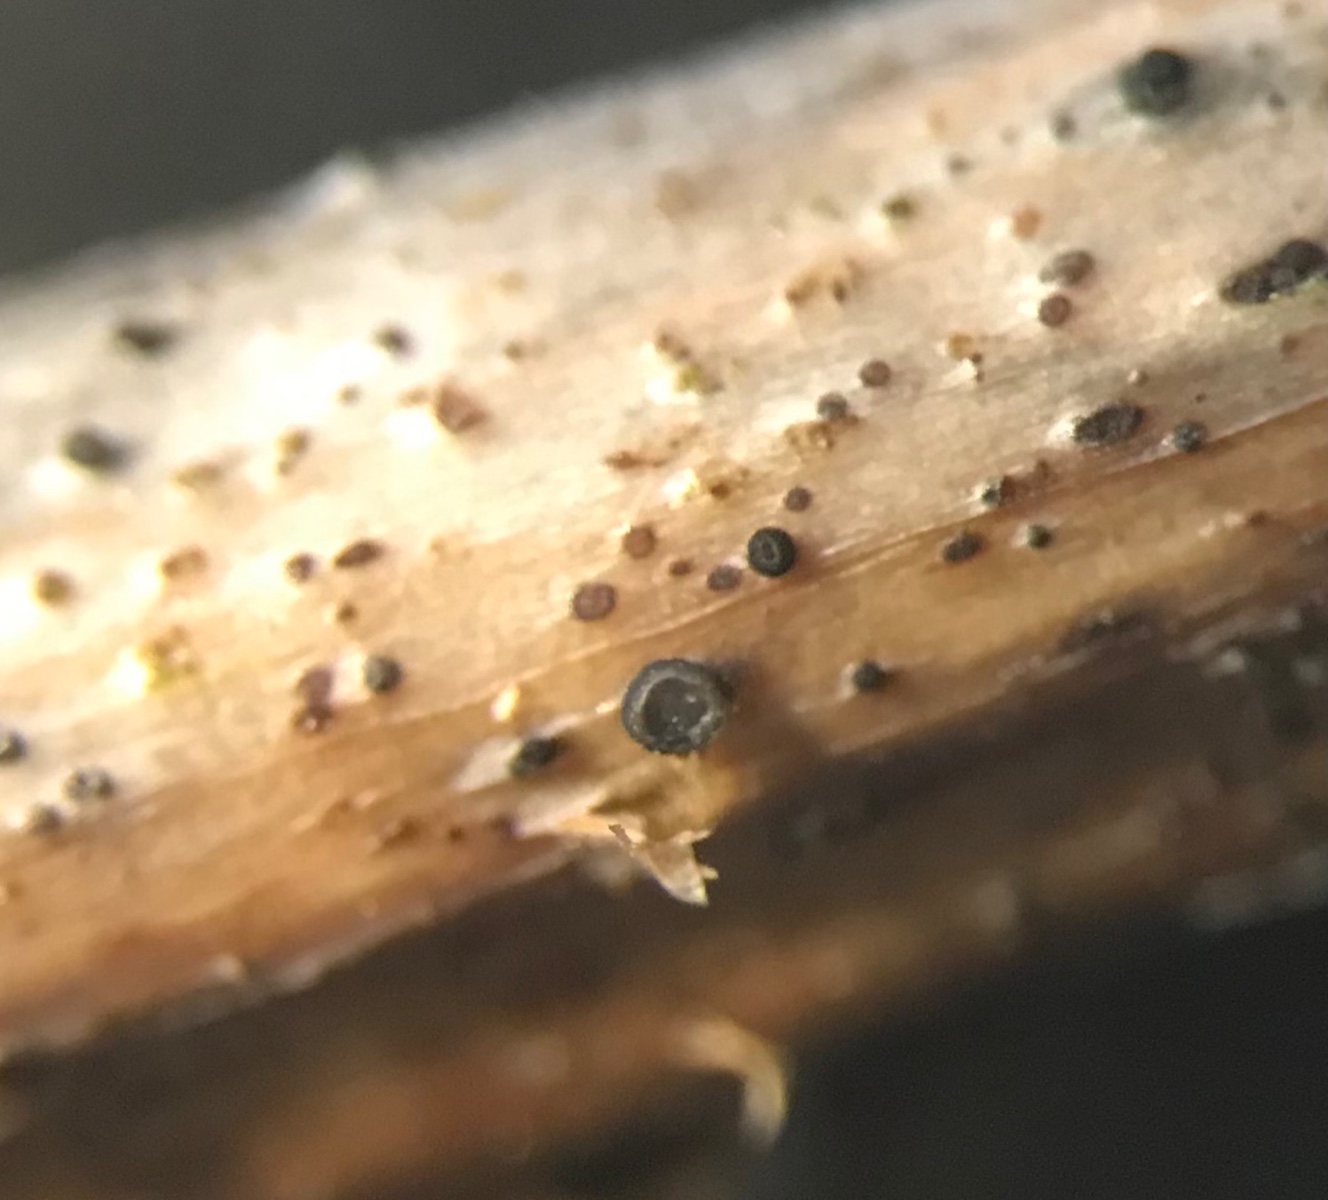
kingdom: Fungi
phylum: Ascomycota
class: Leotiomycetes
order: Helotiales
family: Ploettnerulaceae
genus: Pyrenopeziza
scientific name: Pyrenopeziza rubi
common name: hindbær-kerneskive
